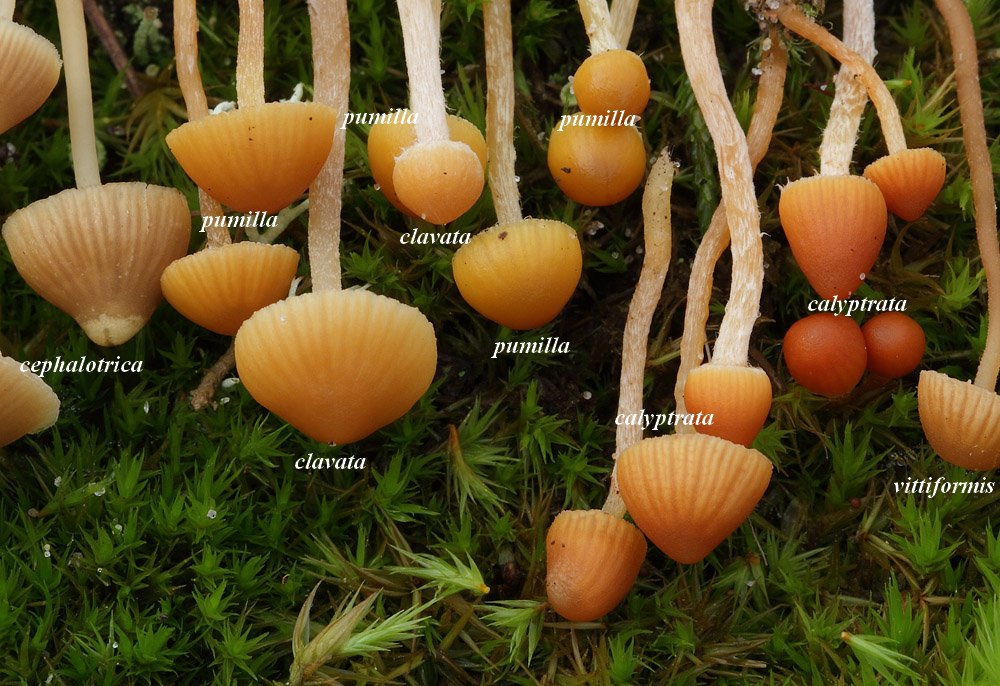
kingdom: Fungi
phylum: Basidiomycota
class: Agaricomycetes
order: Agaricales
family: Hymenogastraceae
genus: Galerina
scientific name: Galerina clavata
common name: kær-hjelmhat
